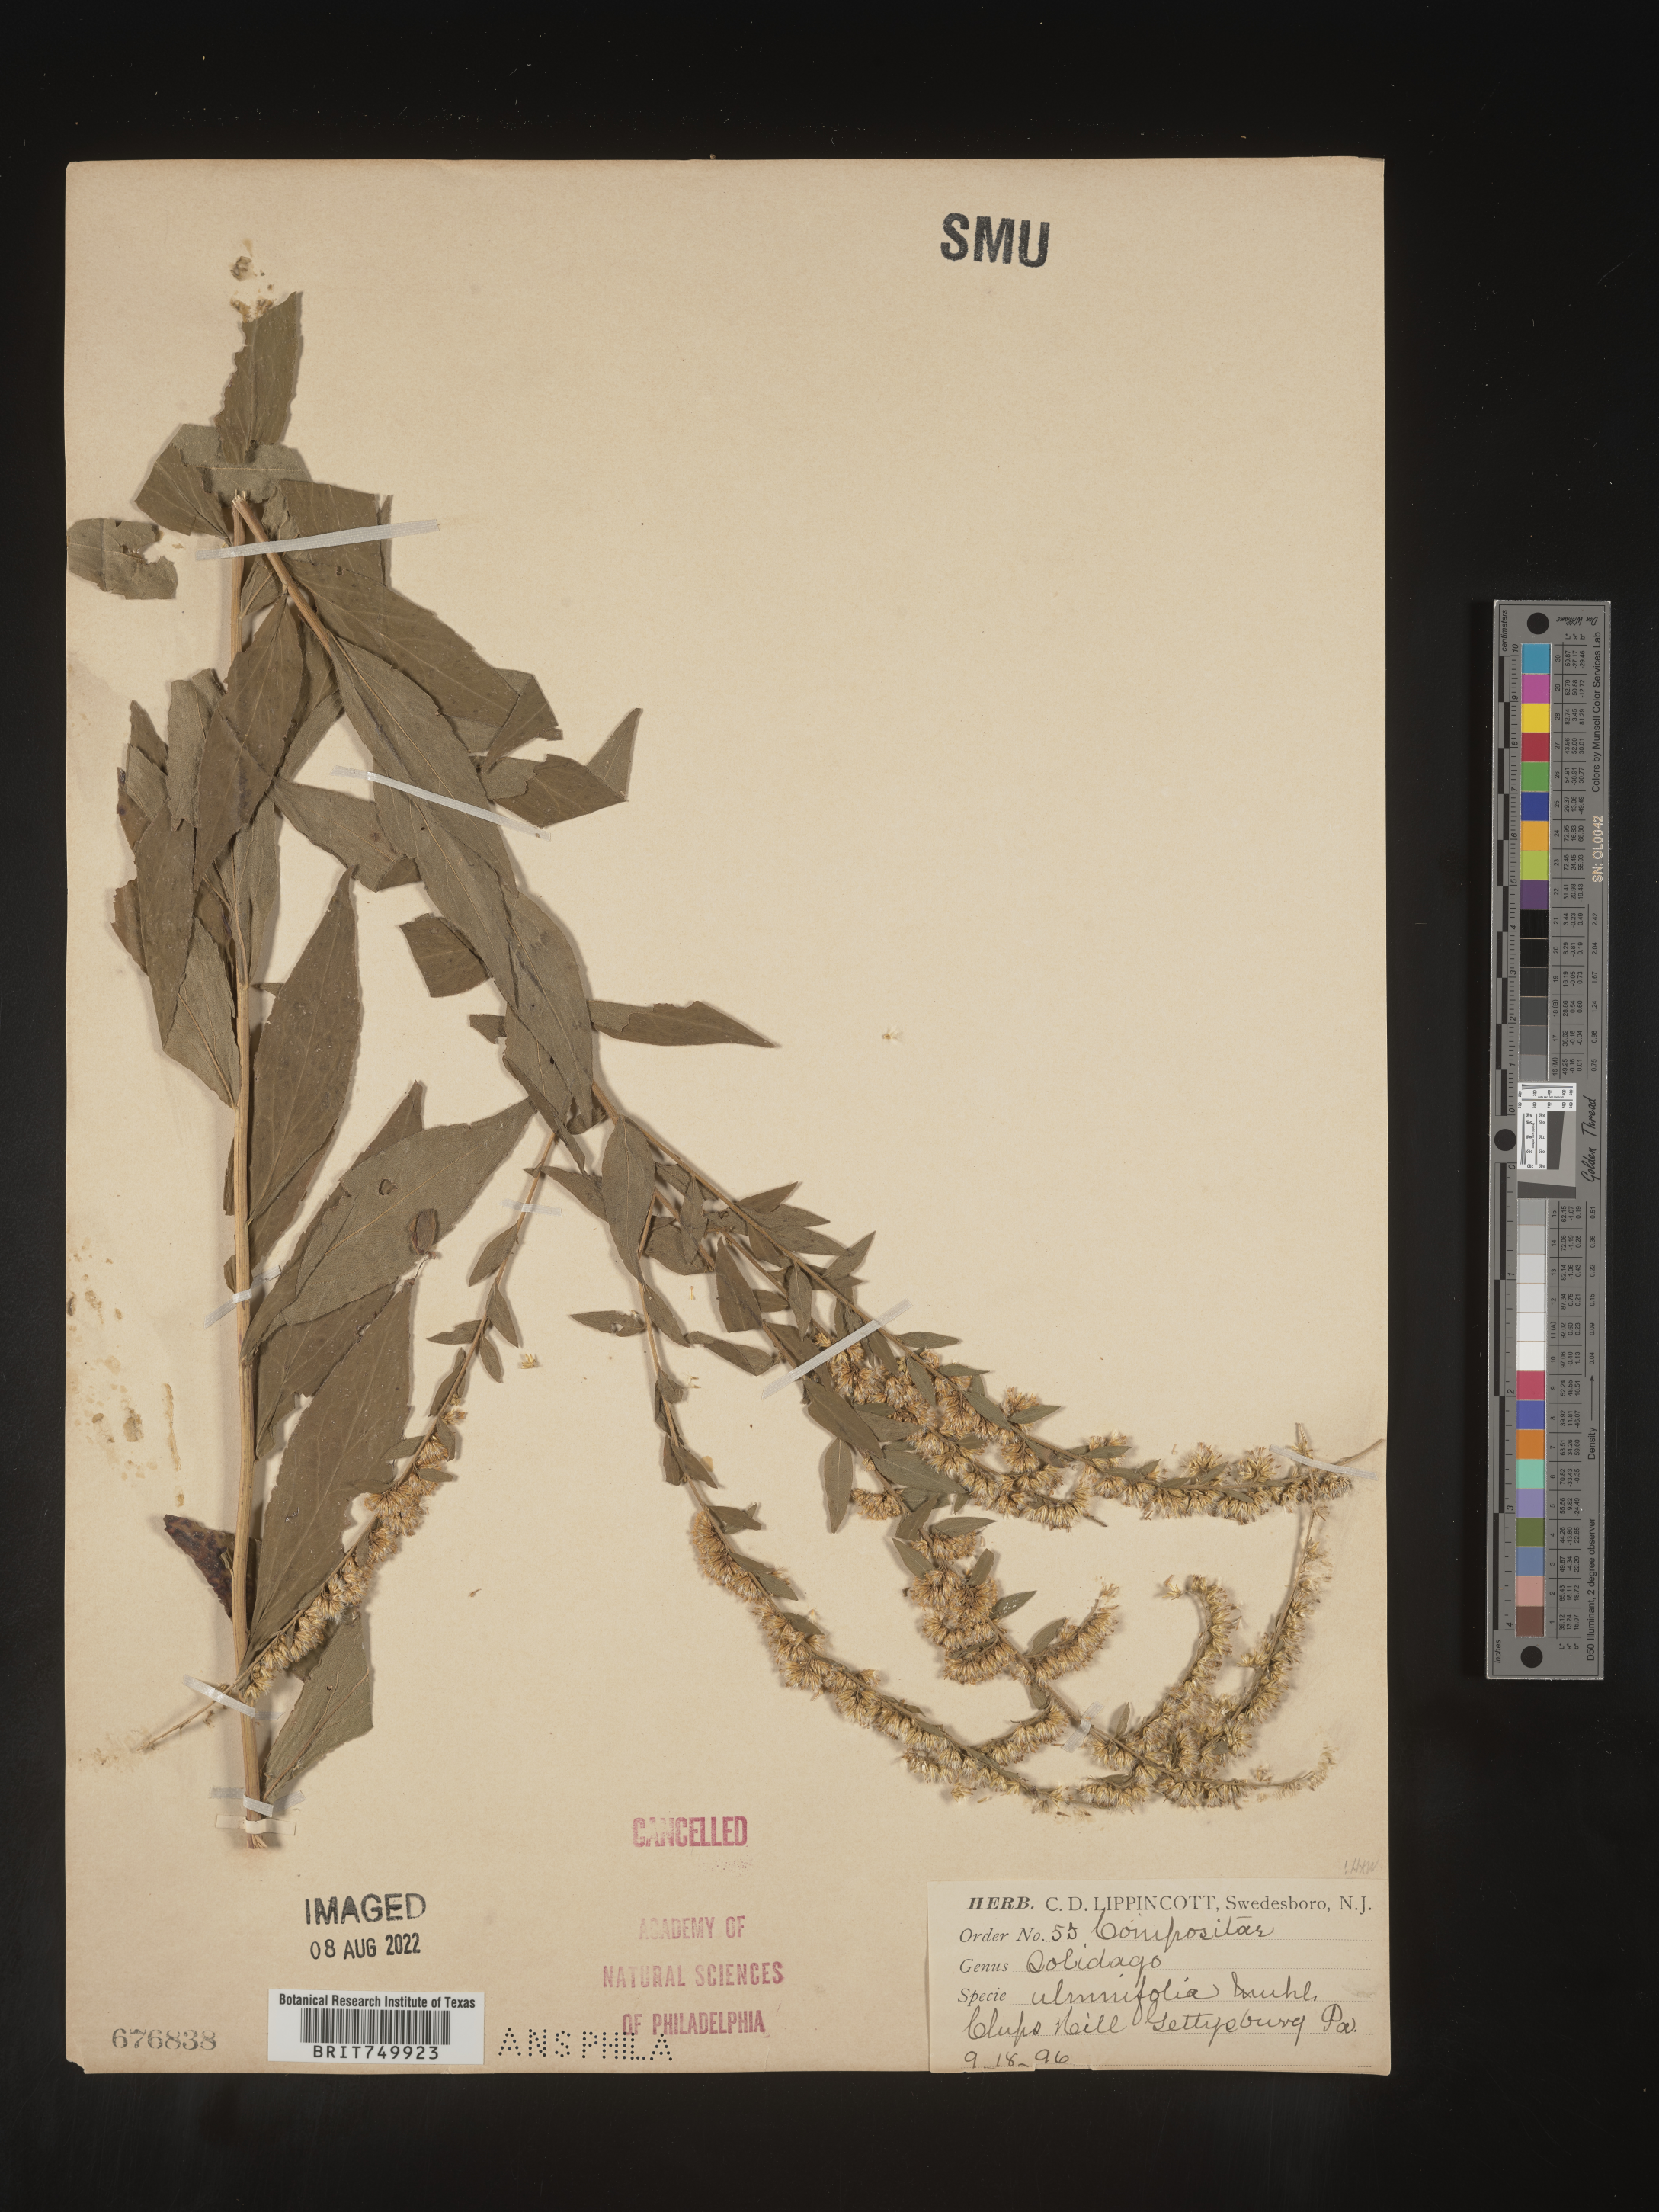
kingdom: Plantae
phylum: Tracheophyta
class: Magnoliopsida
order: Asterales
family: Asteraceae
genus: Solidago
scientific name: Solidago ulmifolia
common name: Elm-leaf goldenrod
